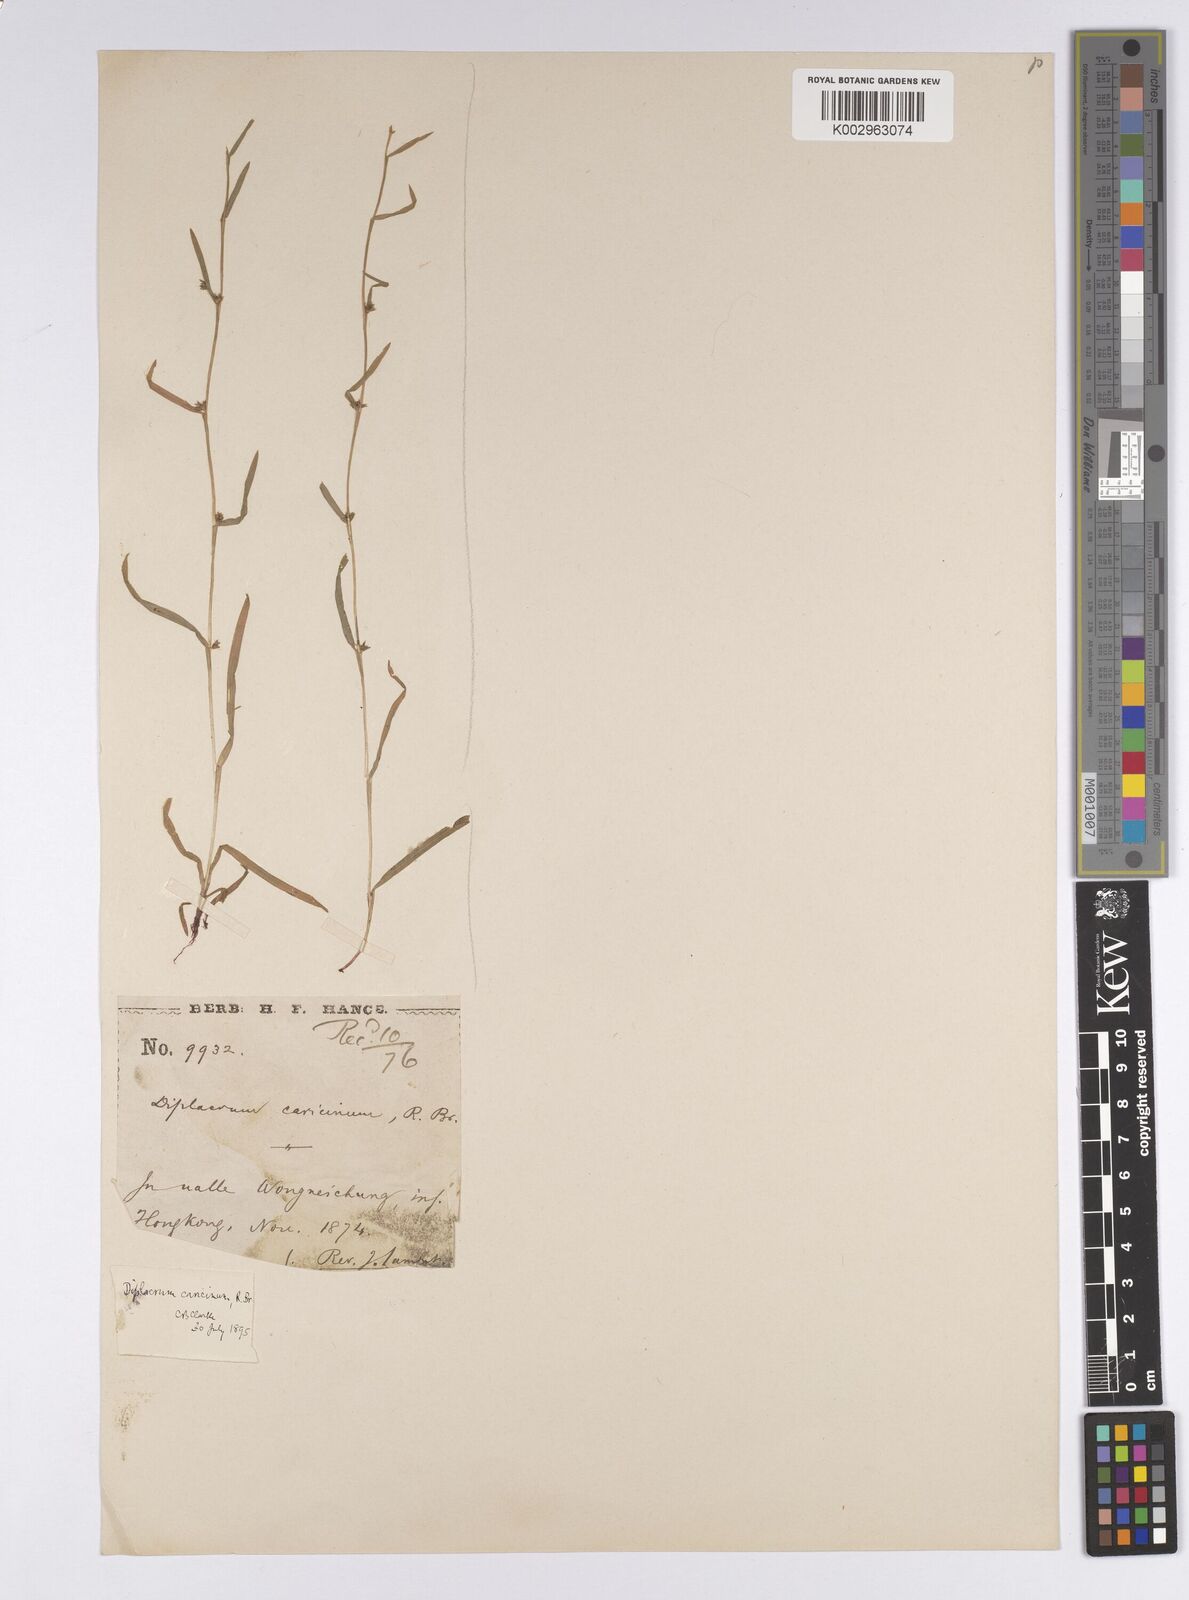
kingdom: Plantae
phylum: Tracheophyta
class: Liliopsida
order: Poales
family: Cyperaceae
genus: Diplacrum
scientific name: Diplacrum caricinum
